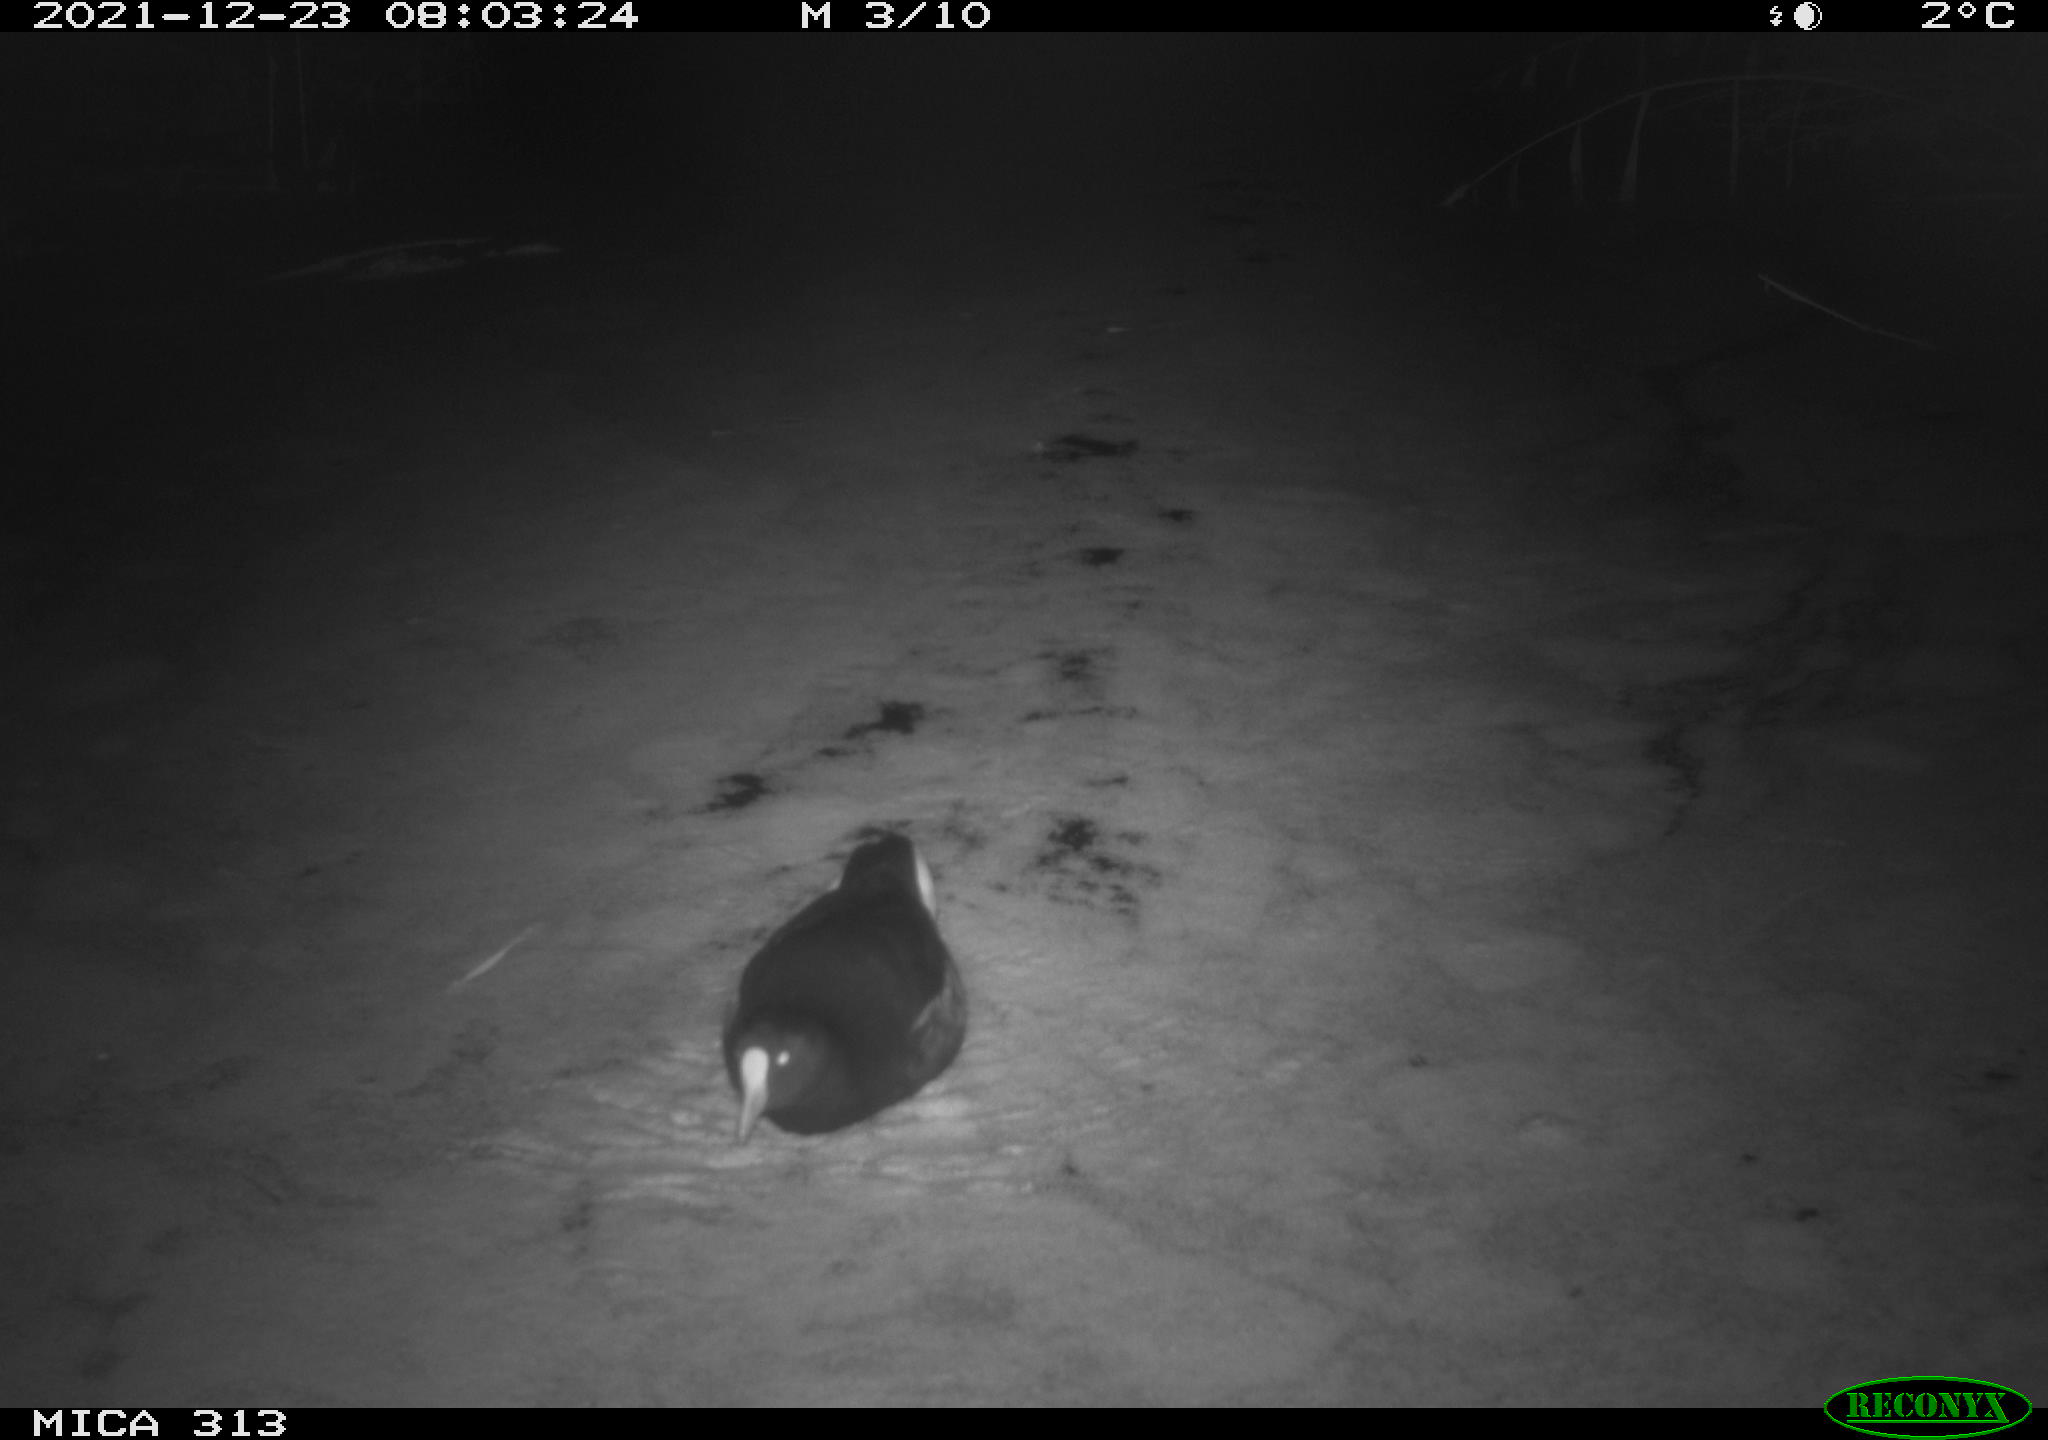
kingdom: Animalia
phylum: Chordata
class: Aves
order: Gruiformes
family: Rallidae
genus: Gallinula
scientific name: Gallinula chloropus
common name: Common moorhen
